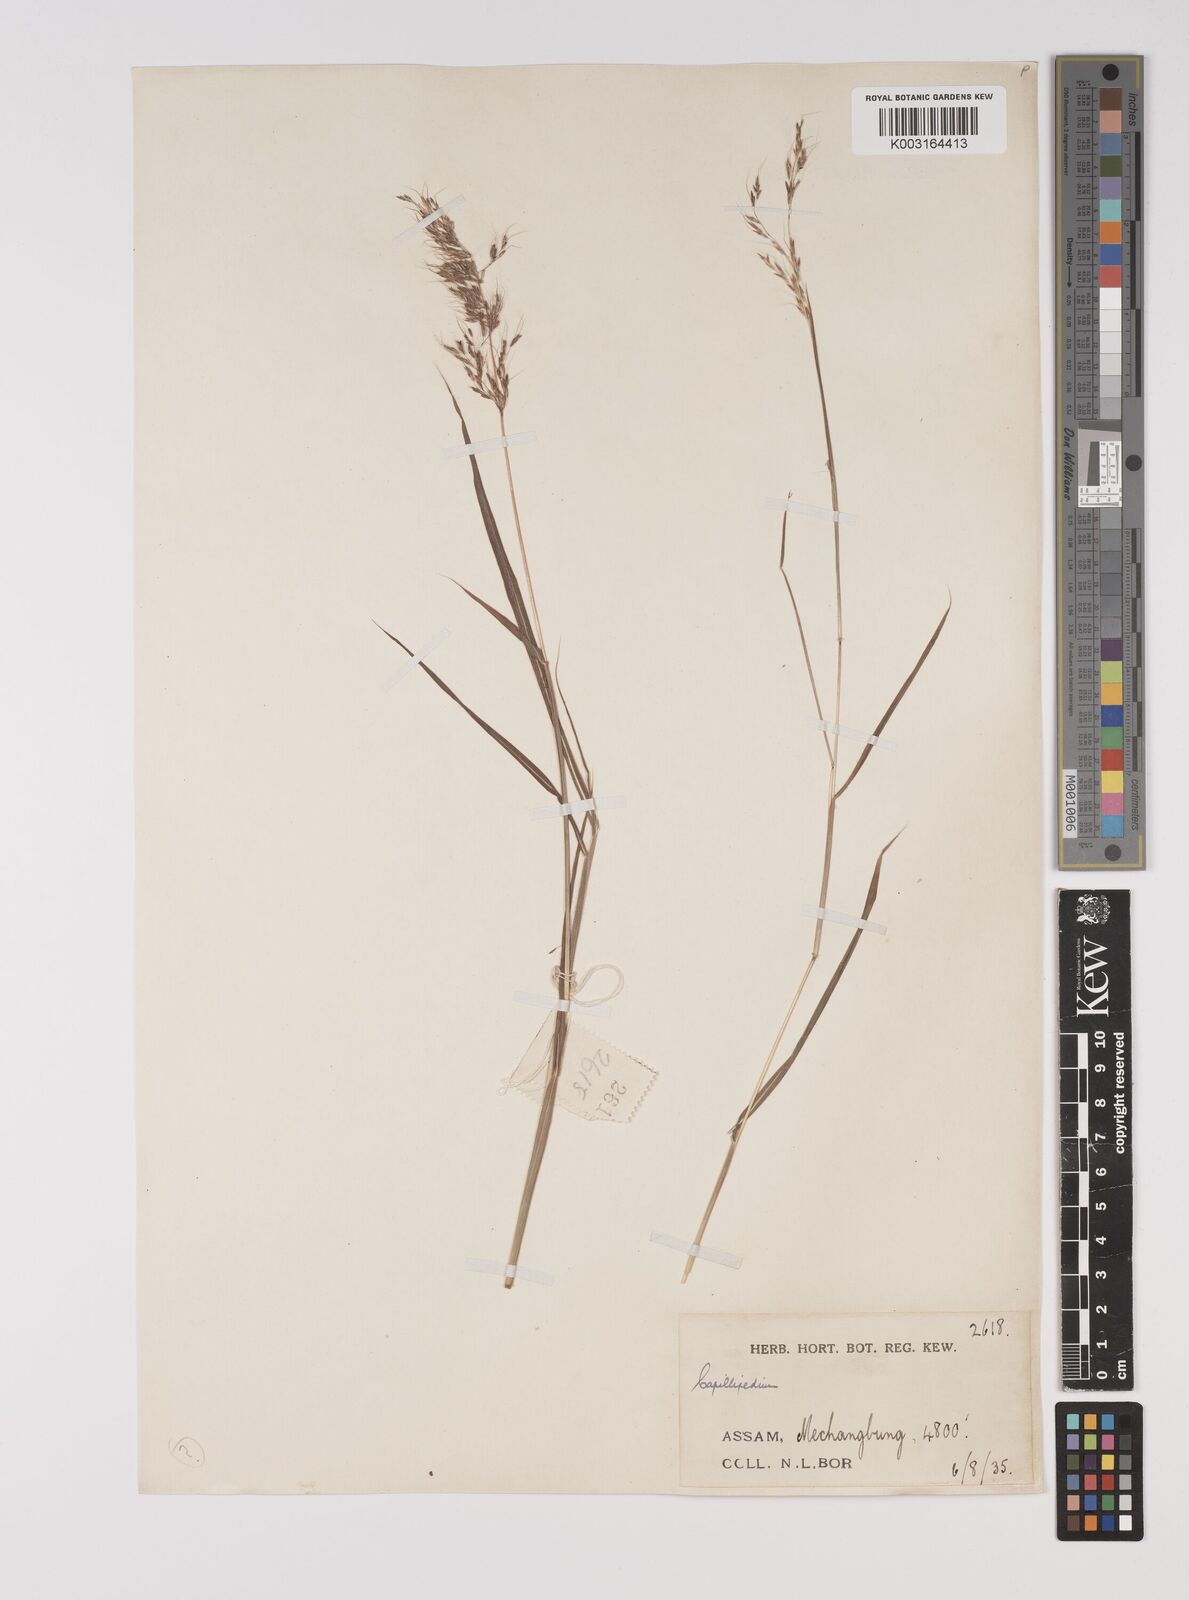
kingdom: Plantae
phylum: Tracheophyta
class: Liliopsida
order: Poales
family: Poaceae
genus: Capillipedium
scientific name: Capillipedium assimile
